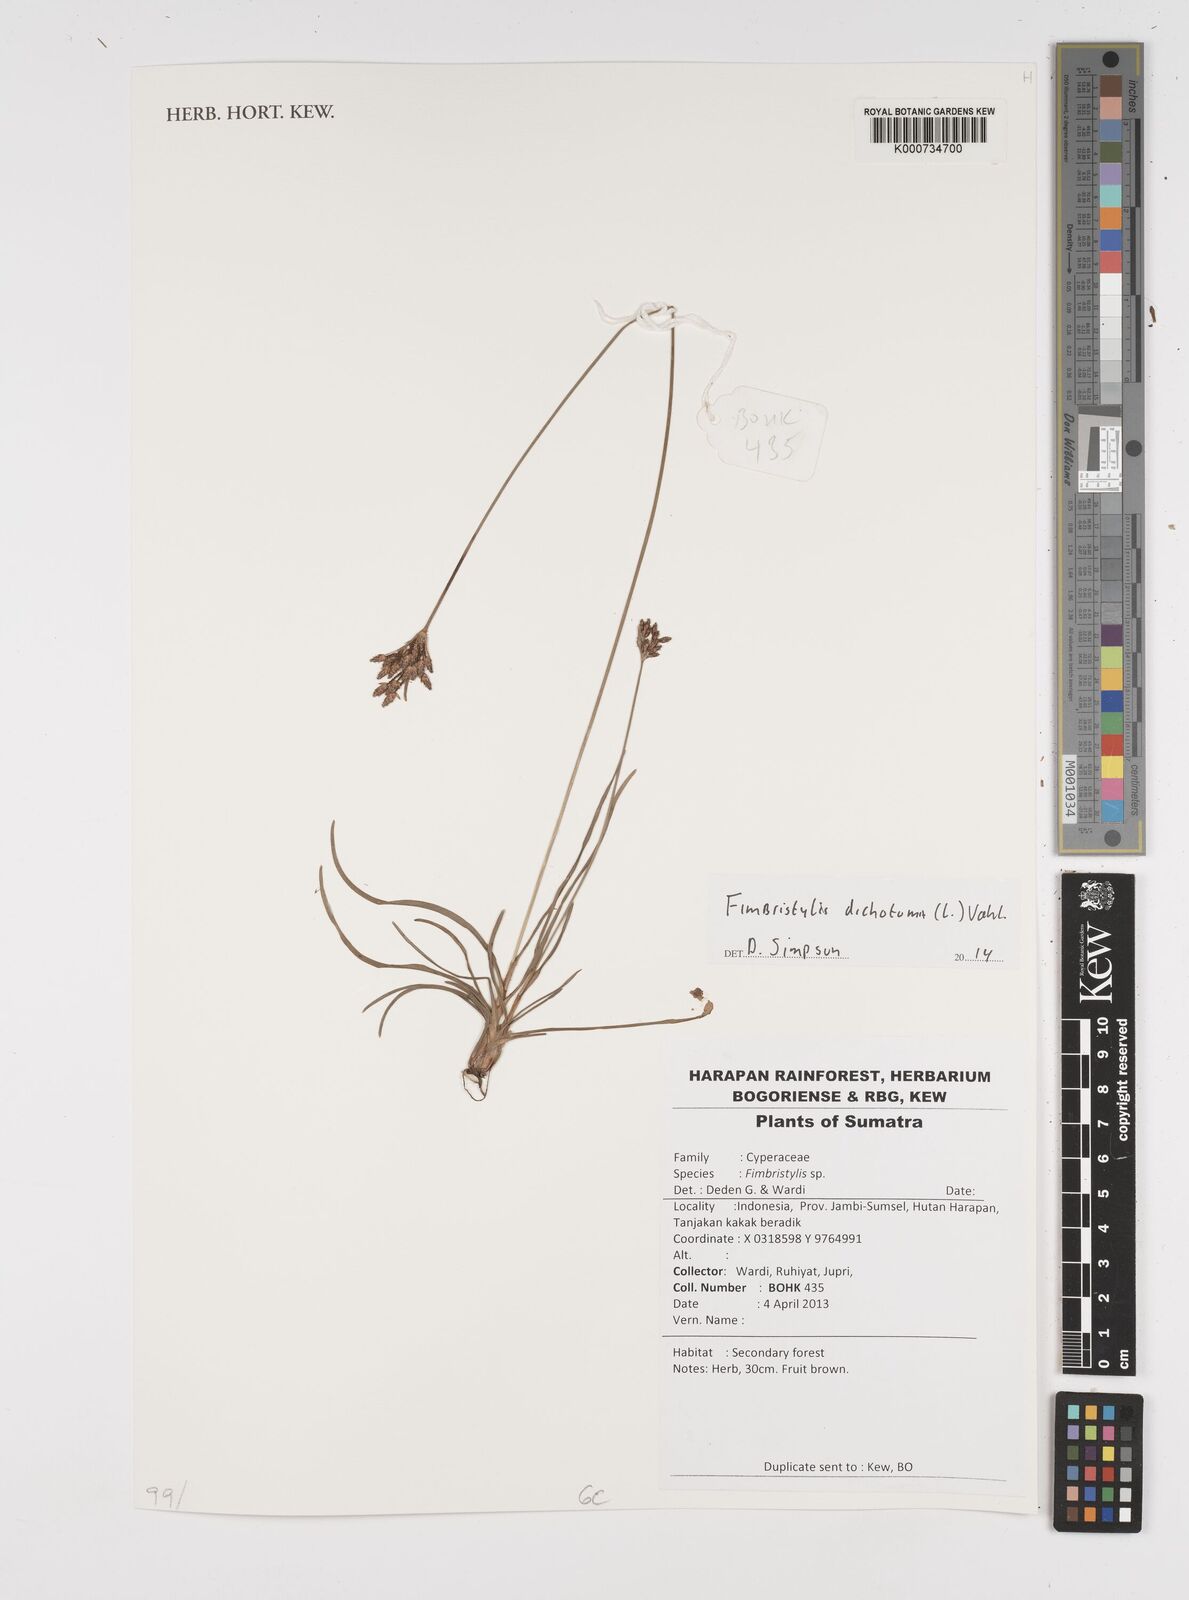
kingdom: Plantae
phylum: Tracheophyta
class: Liliopsida
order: Poales
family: Cyperaceae
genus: Fimbristylis
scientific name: Fimbristylis dichotoma
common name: Forked fimbry
